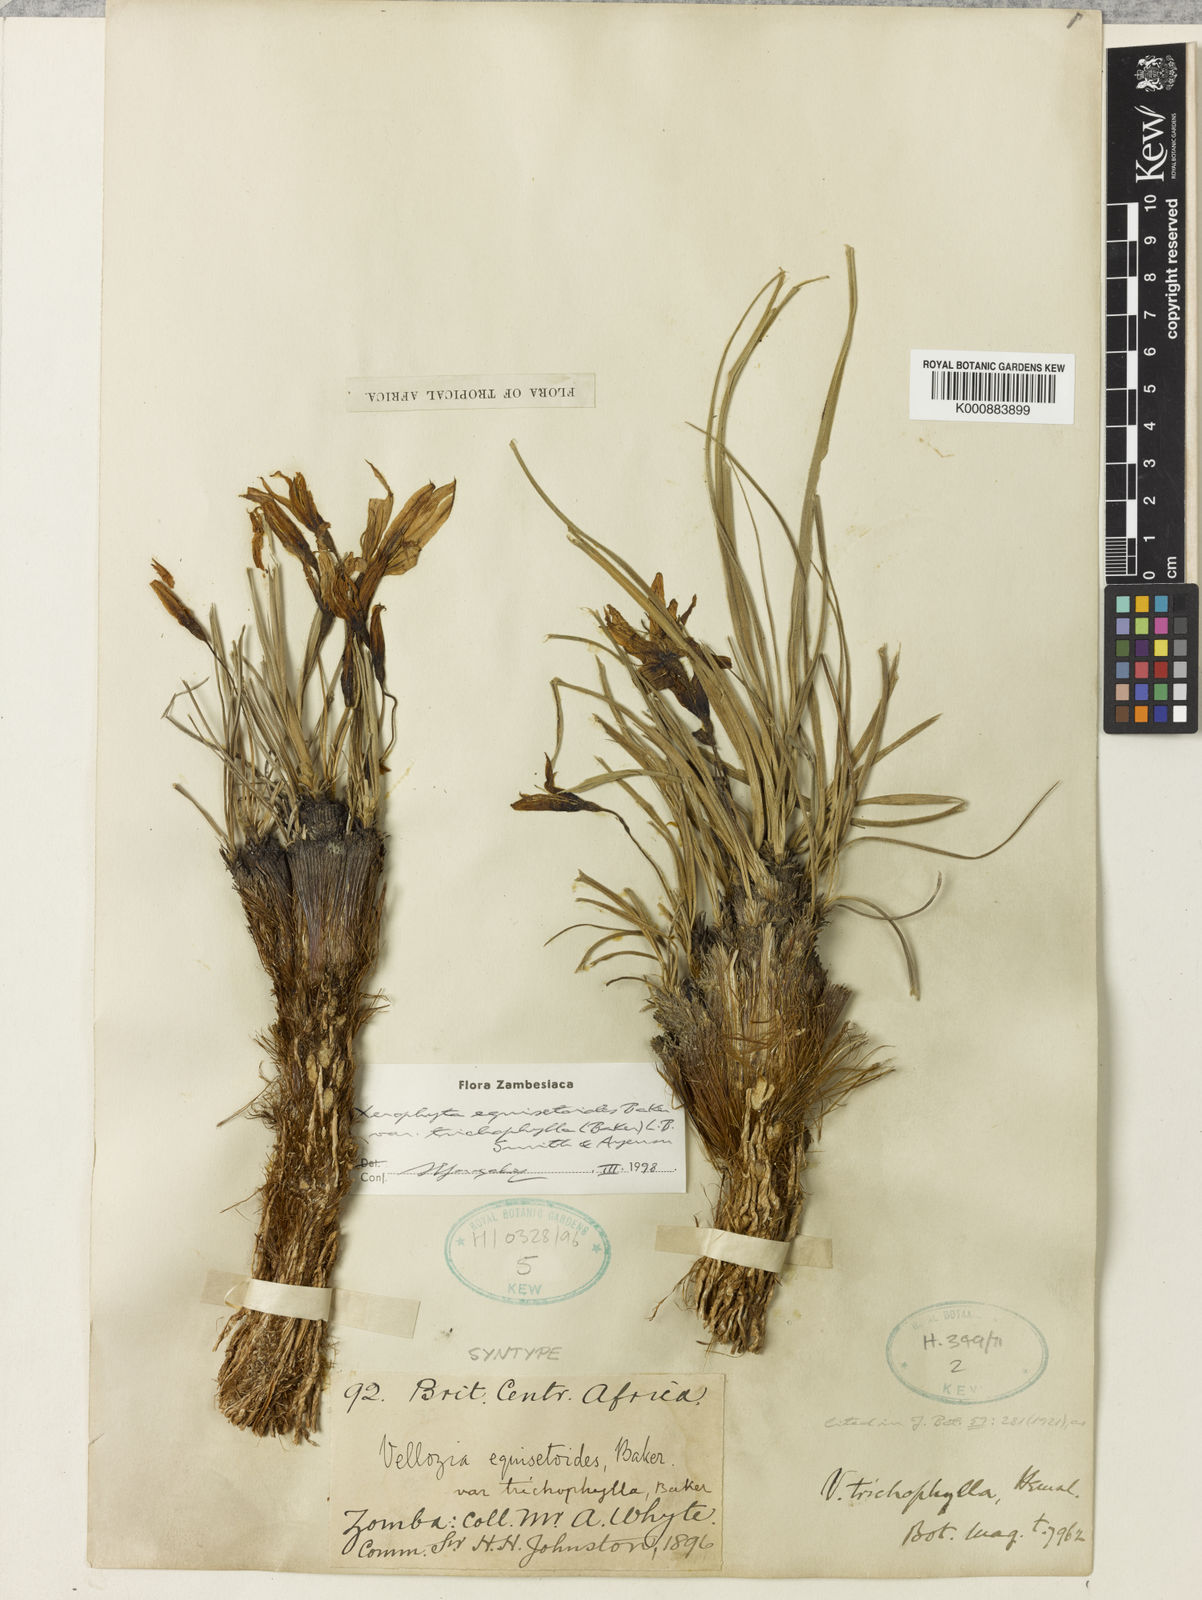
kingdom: Plantae
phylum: Tracheophyta
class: Liliopsida
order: Pandanales
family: Velloziaceae
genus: Xerophyta
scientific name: Xerophyta trichophylla
